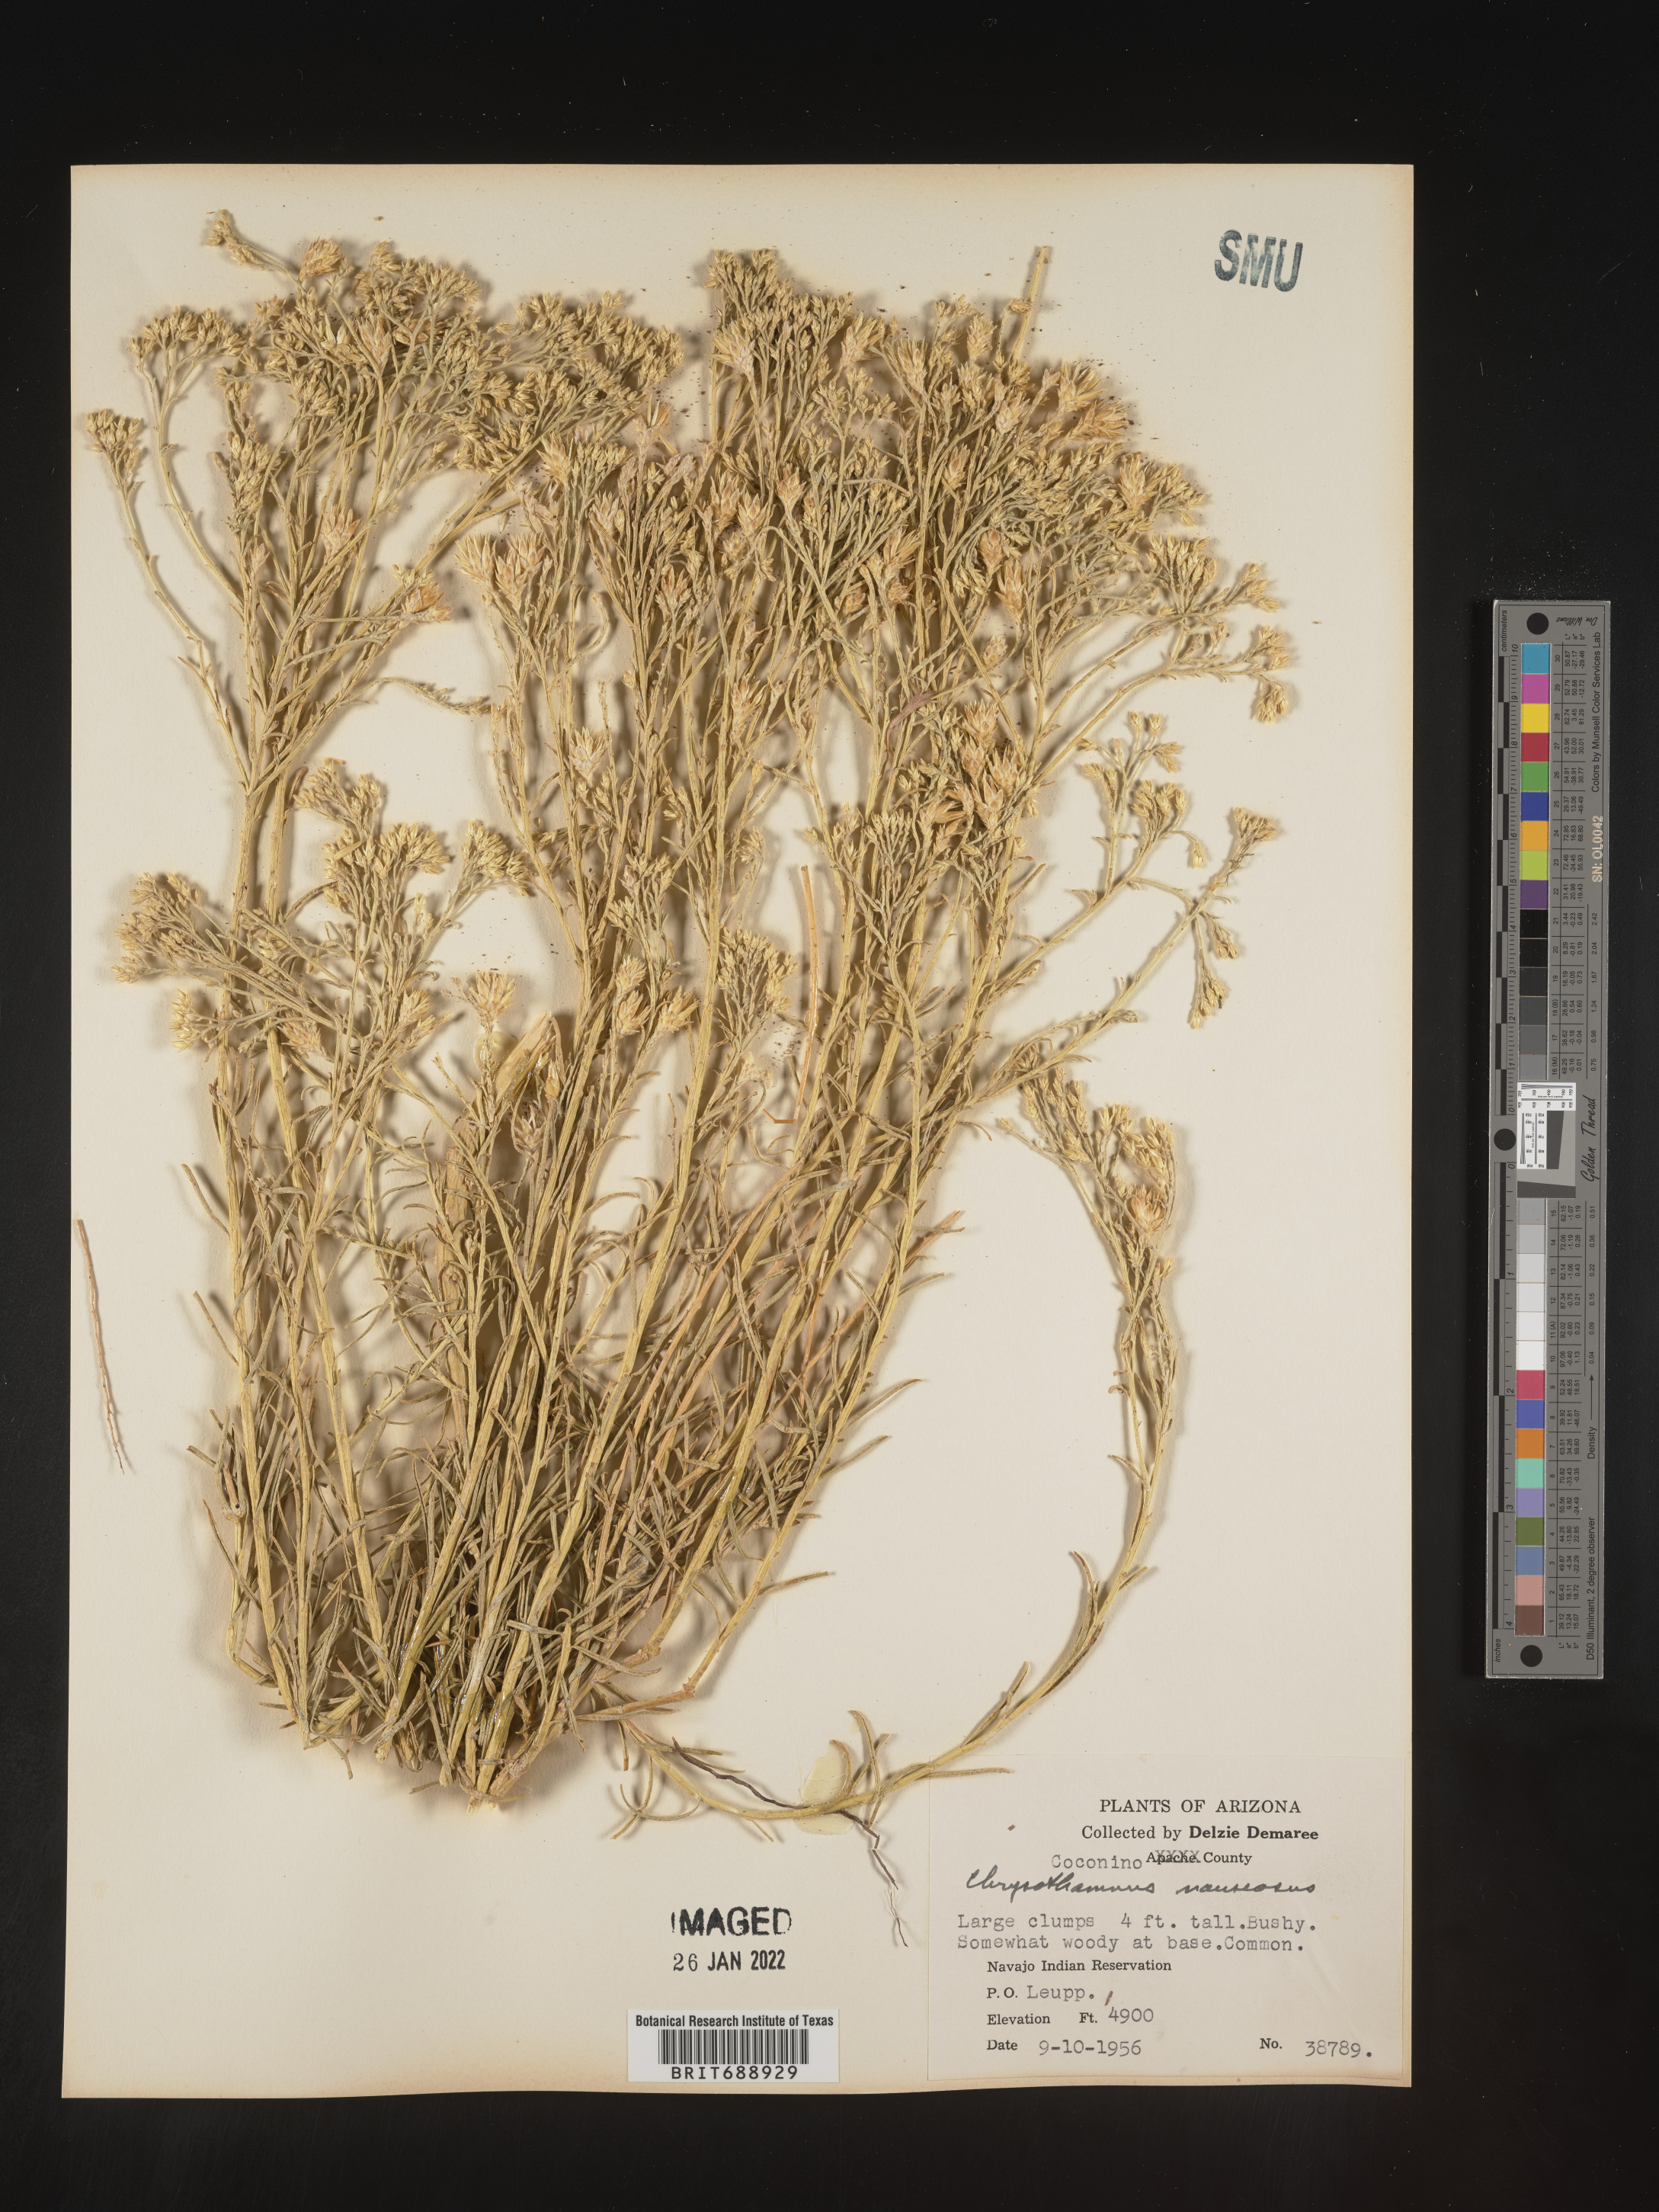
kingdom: Plantae
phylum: Tracheophyta
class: Magnoliopsida
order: Asterales
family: Asteraceae
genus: Ericameria
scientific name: Ericameria nauseosa
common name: Rubber rabbitbrush
